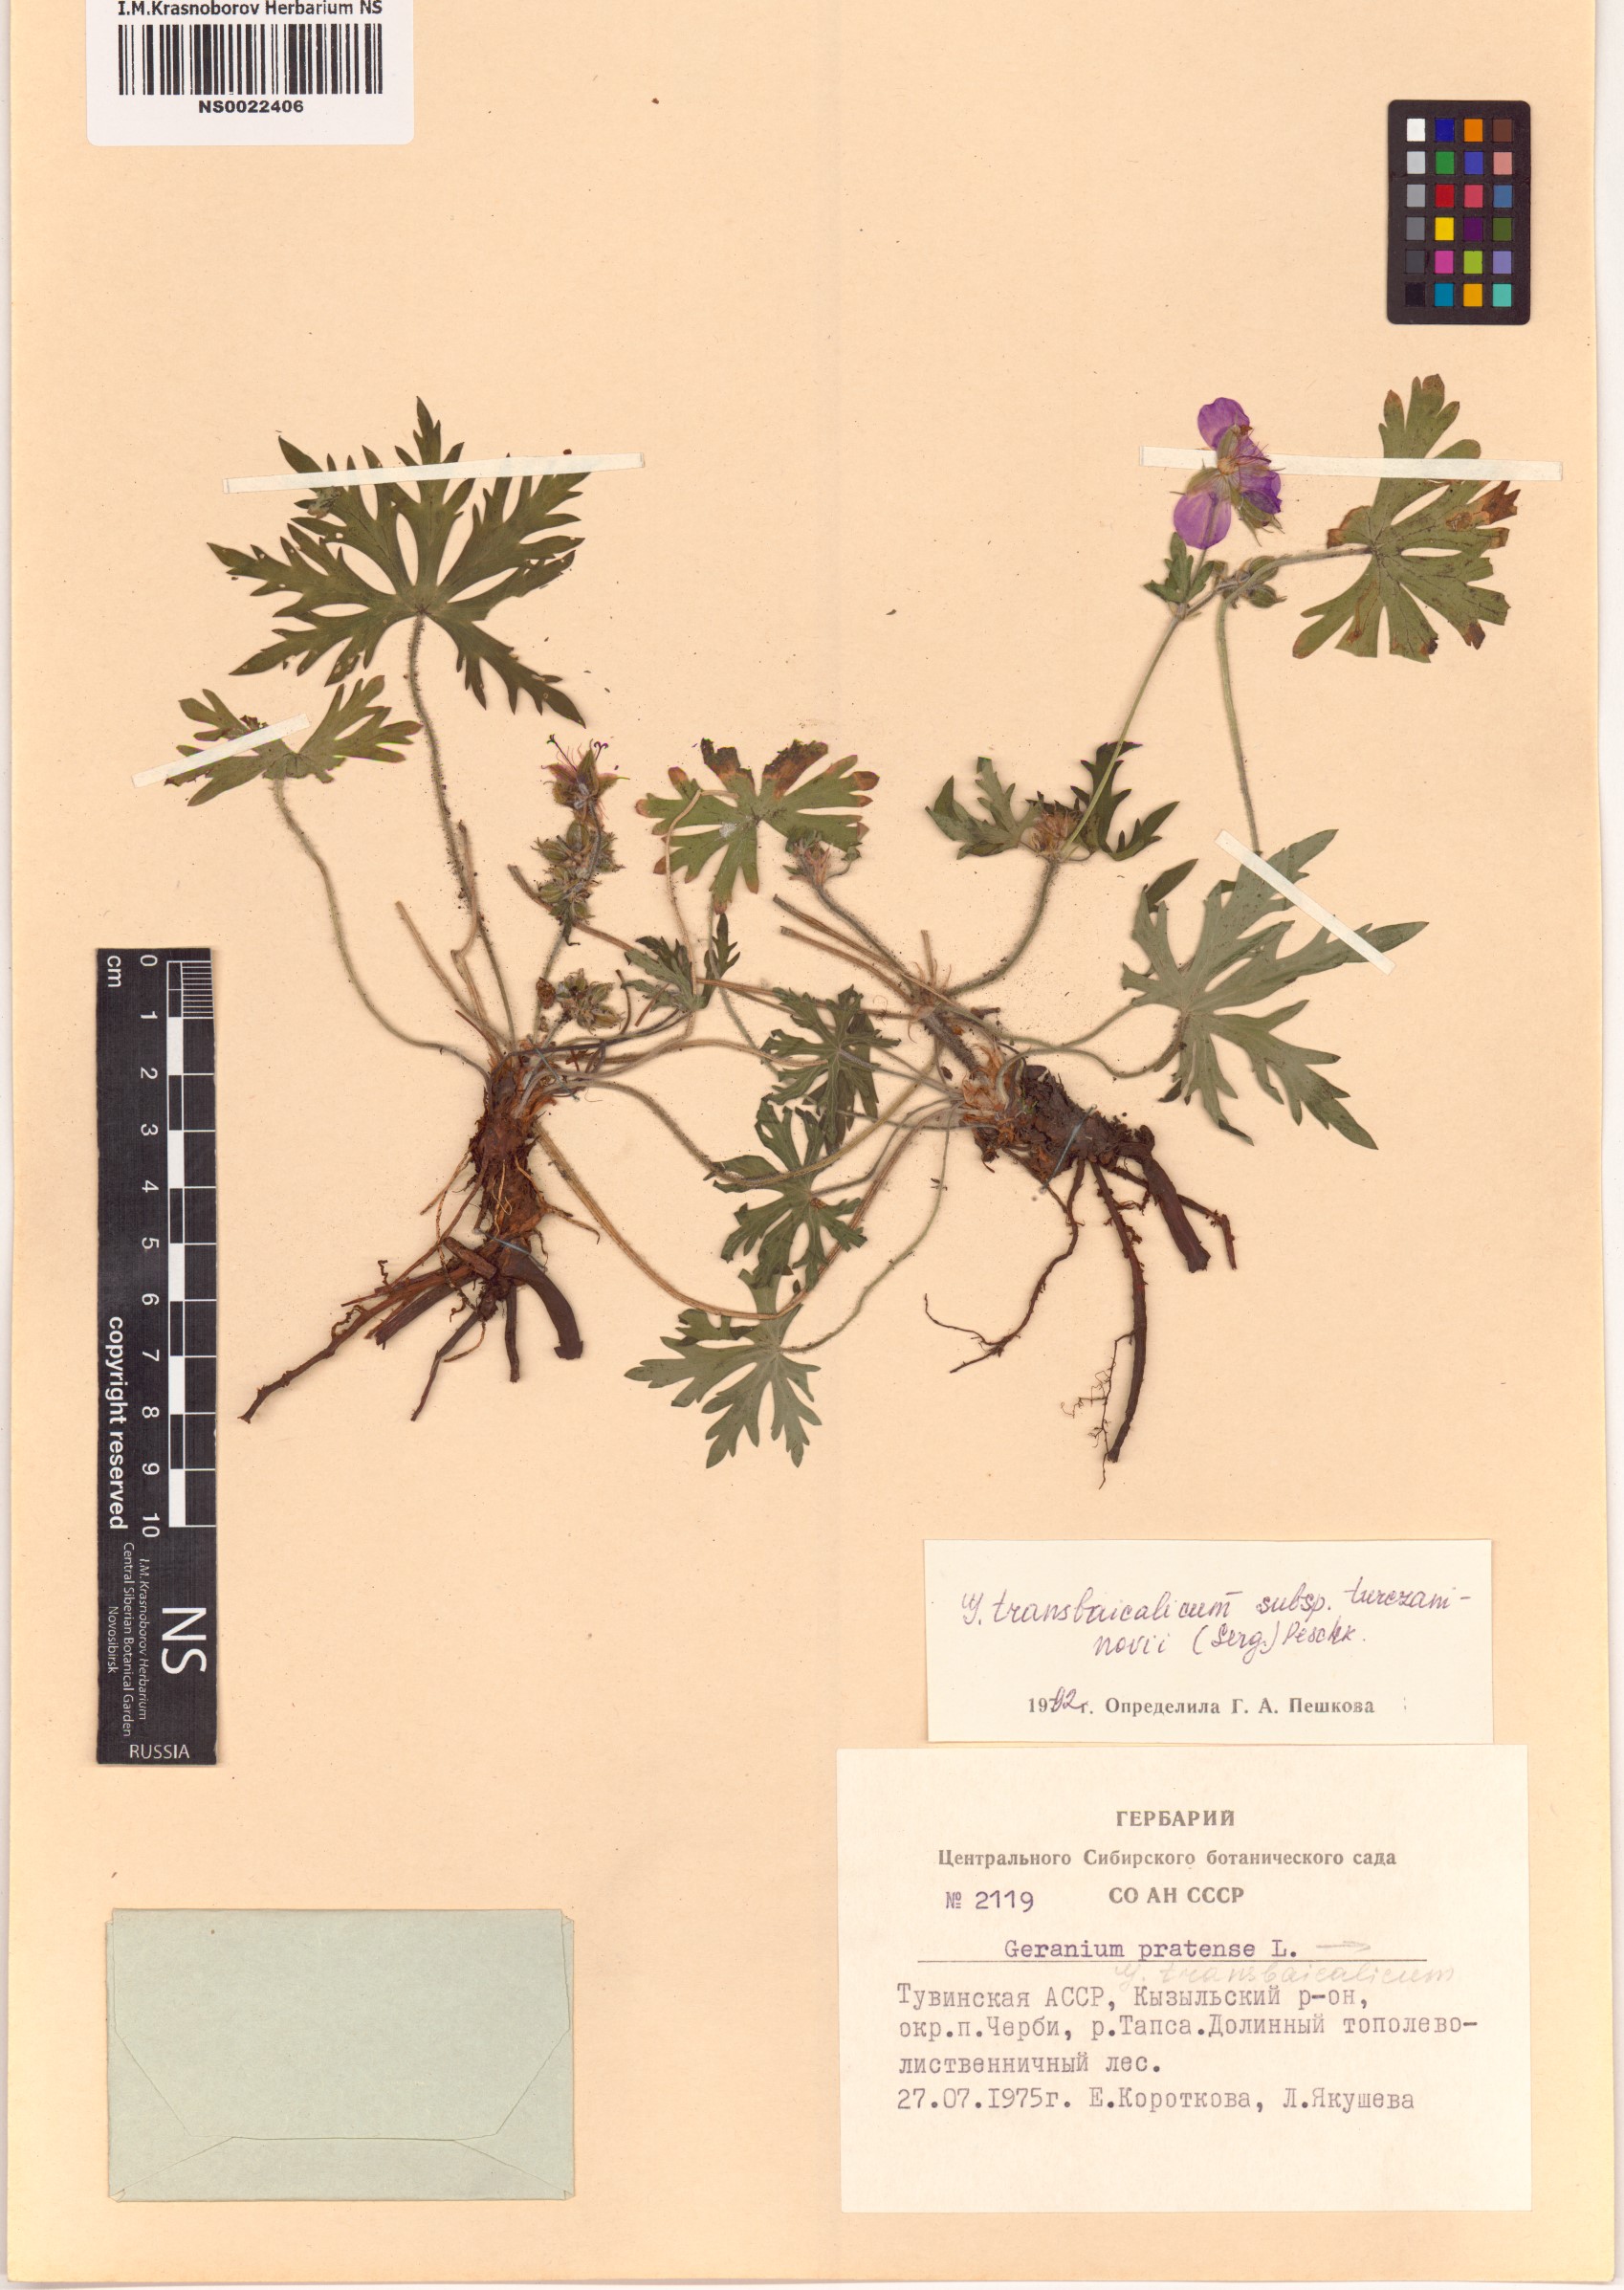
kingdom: Plantae
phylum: Tracheophyta
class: Magnoliopsida
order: Geraniales
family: Geraniaceae
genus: Geranium
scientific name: Geranium pratense
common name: Meadow crane's-bill
